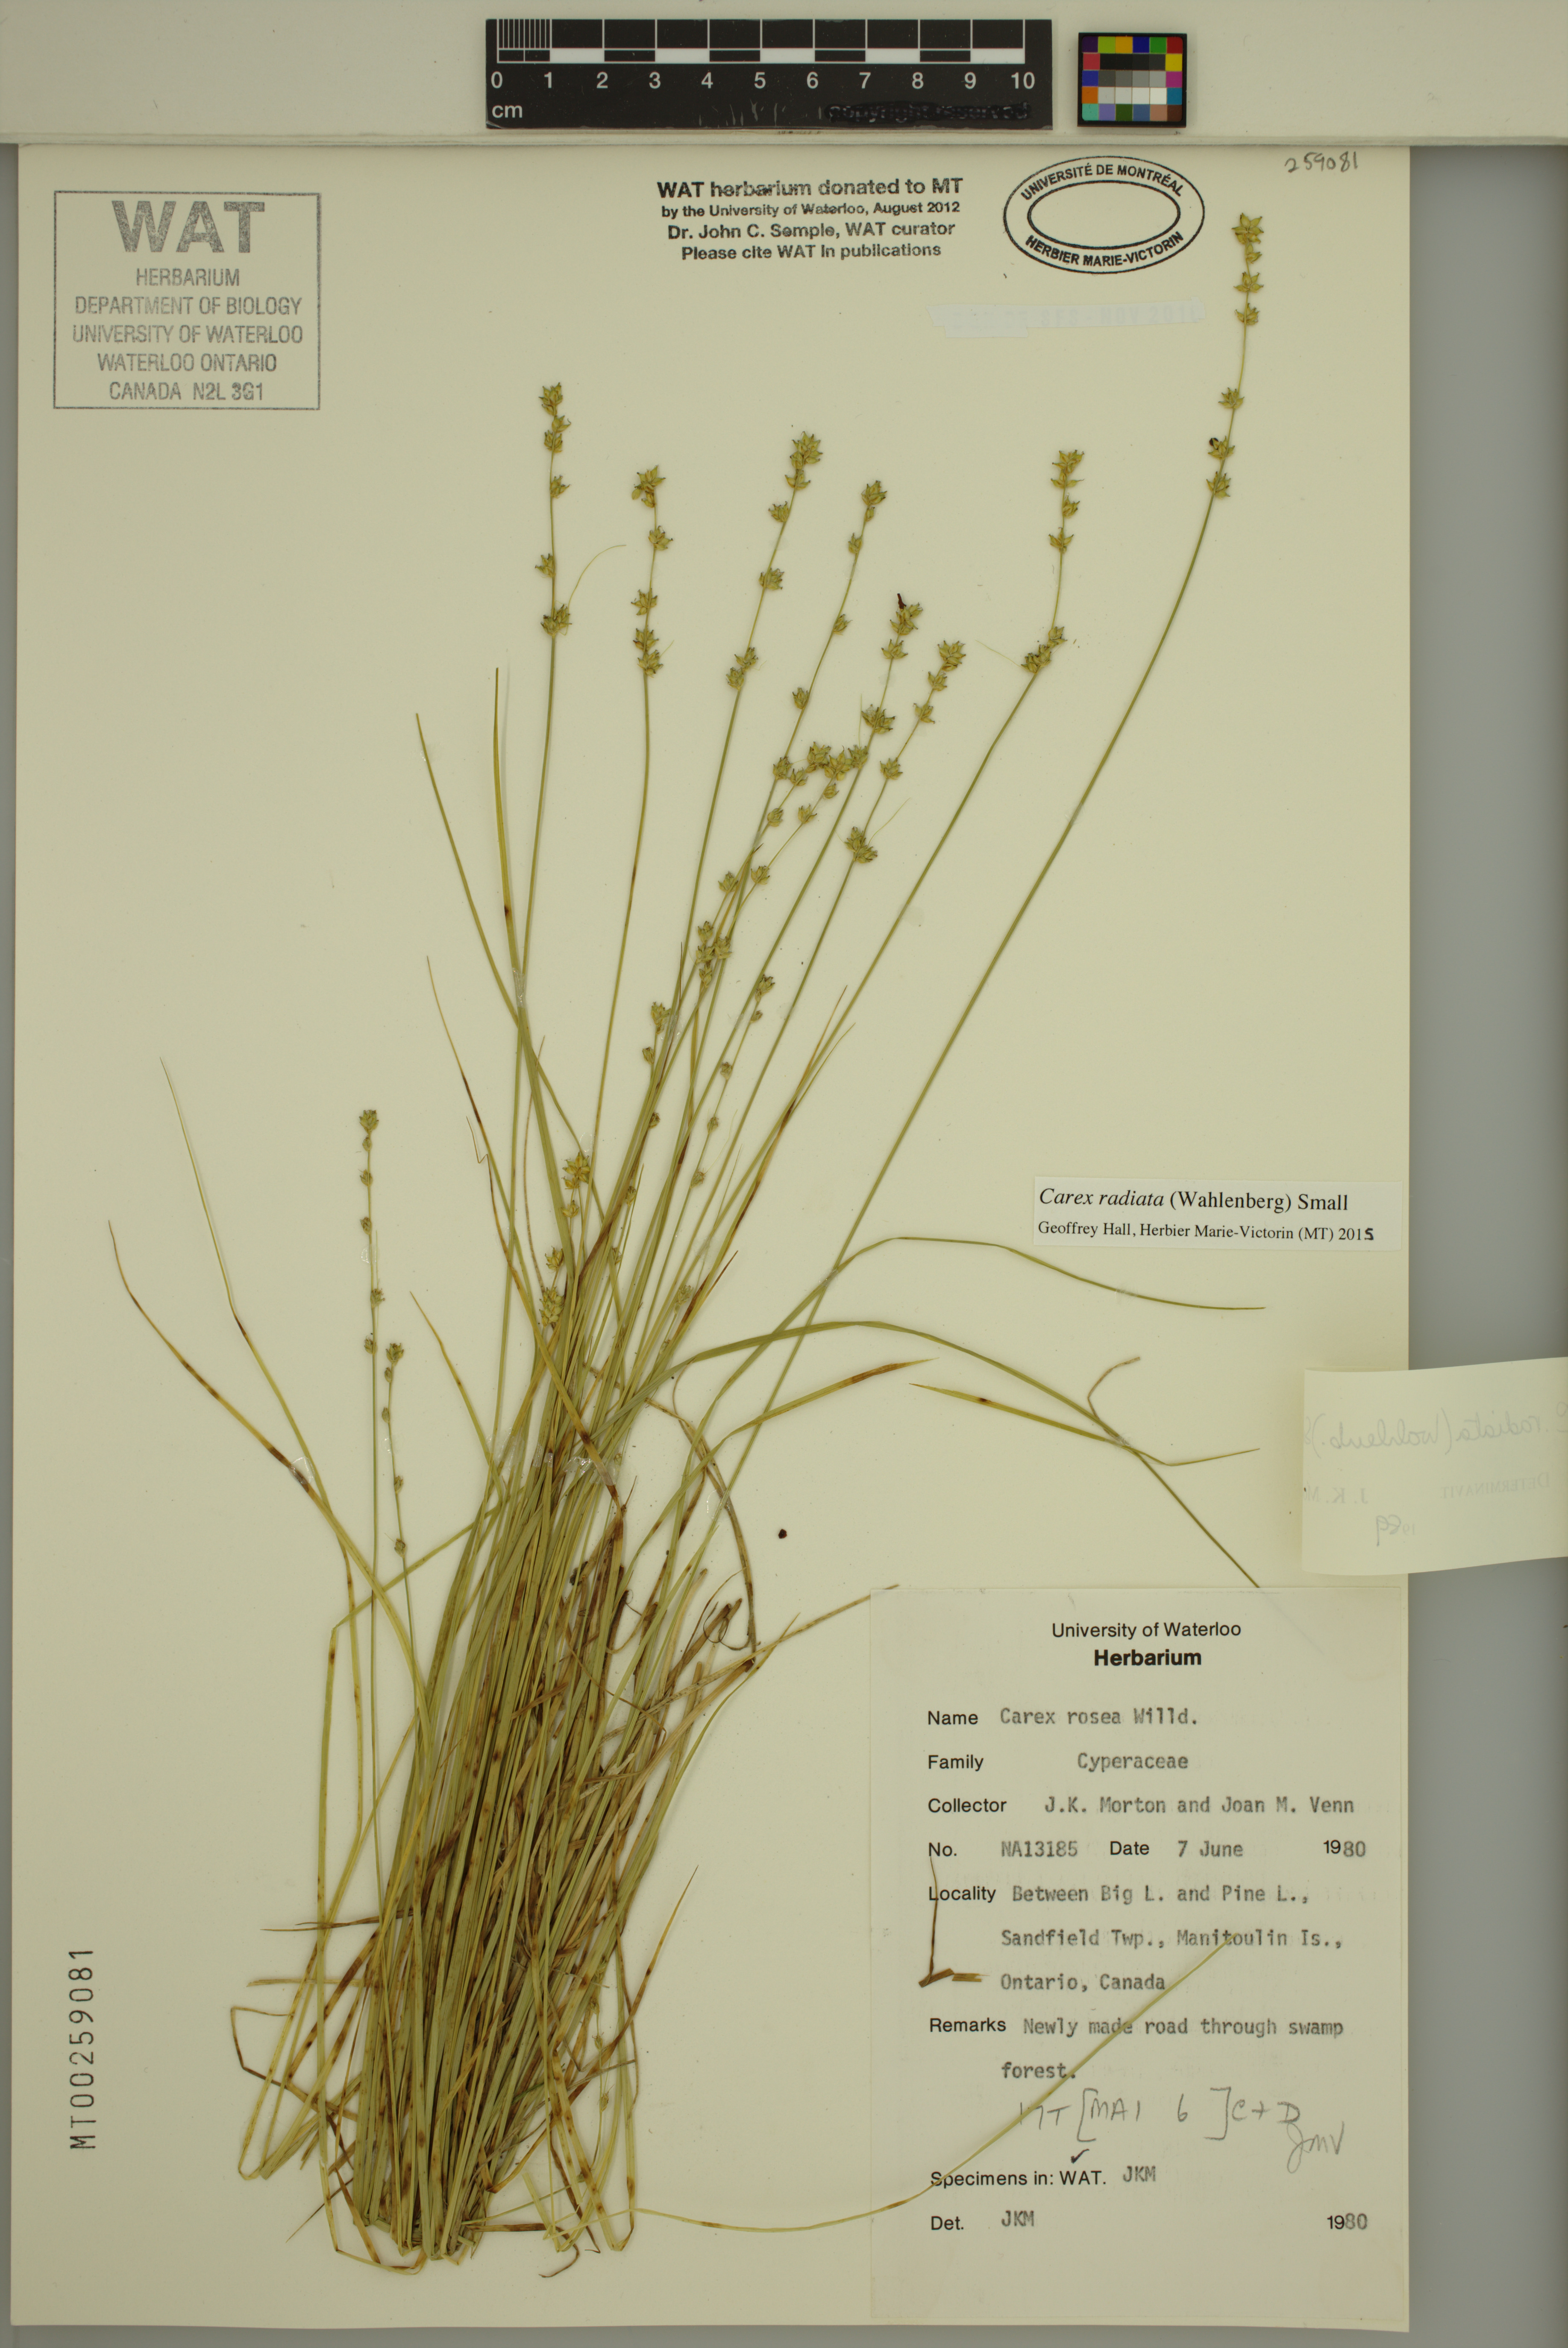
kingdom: Plantae
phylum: Tracheophyta
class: Liliopsida
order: Poales
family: Cyperaceae
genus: Carex
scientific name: Carex radiata
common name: Eastern star sedge
